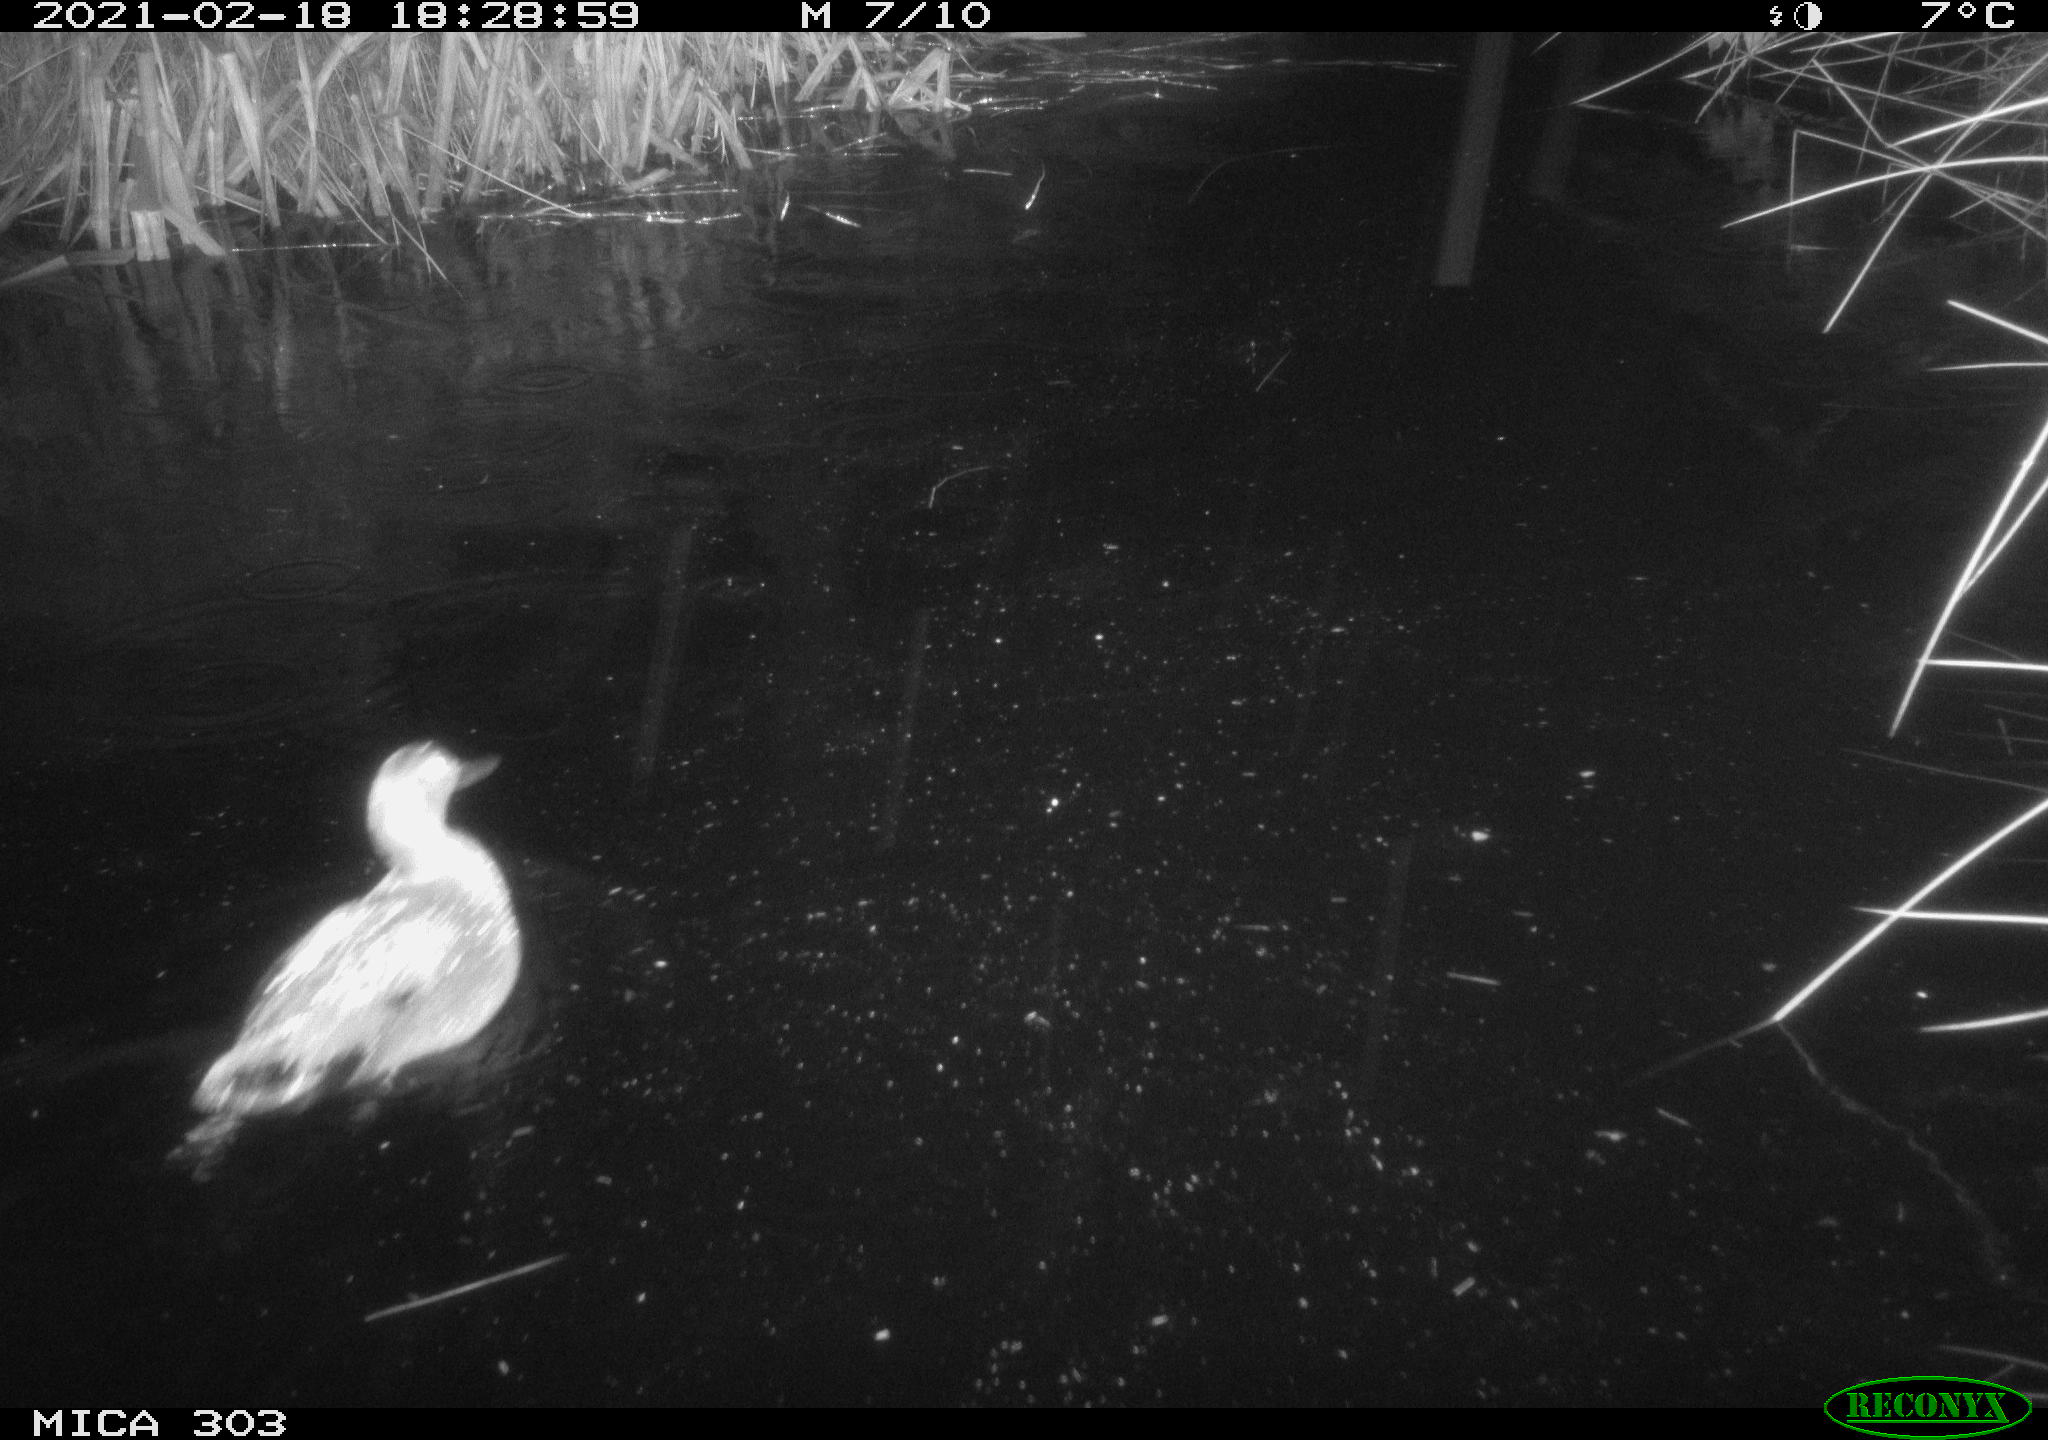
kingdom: Animalia
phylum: Chordata
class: Aves
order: Anseriformes
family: Anatidae
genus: Mareca
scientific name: Mareca strepera
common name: Gadwall
